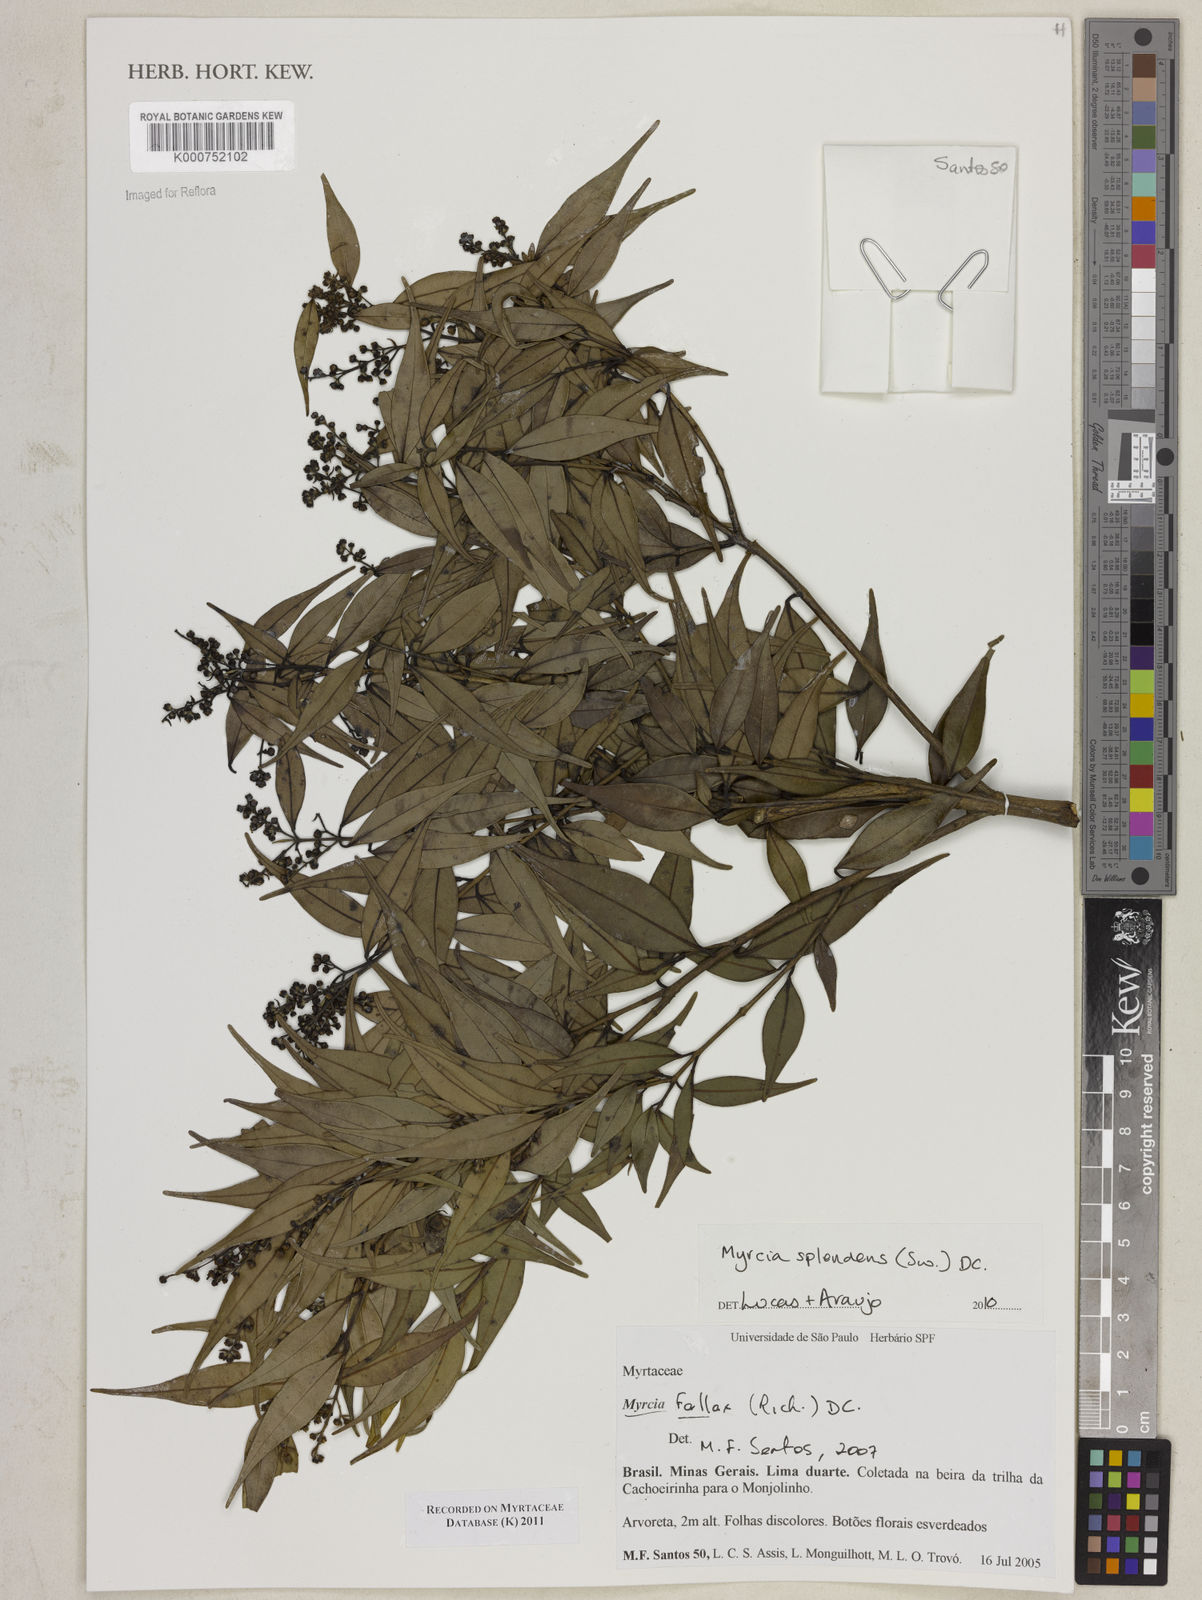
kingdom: Plantae
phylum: Tracheophyta
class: Magnoliopsida
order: Myrtales
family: Myrtaceae
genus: Myrcia
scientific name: Myrcia splendens
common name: Surinam cherry
